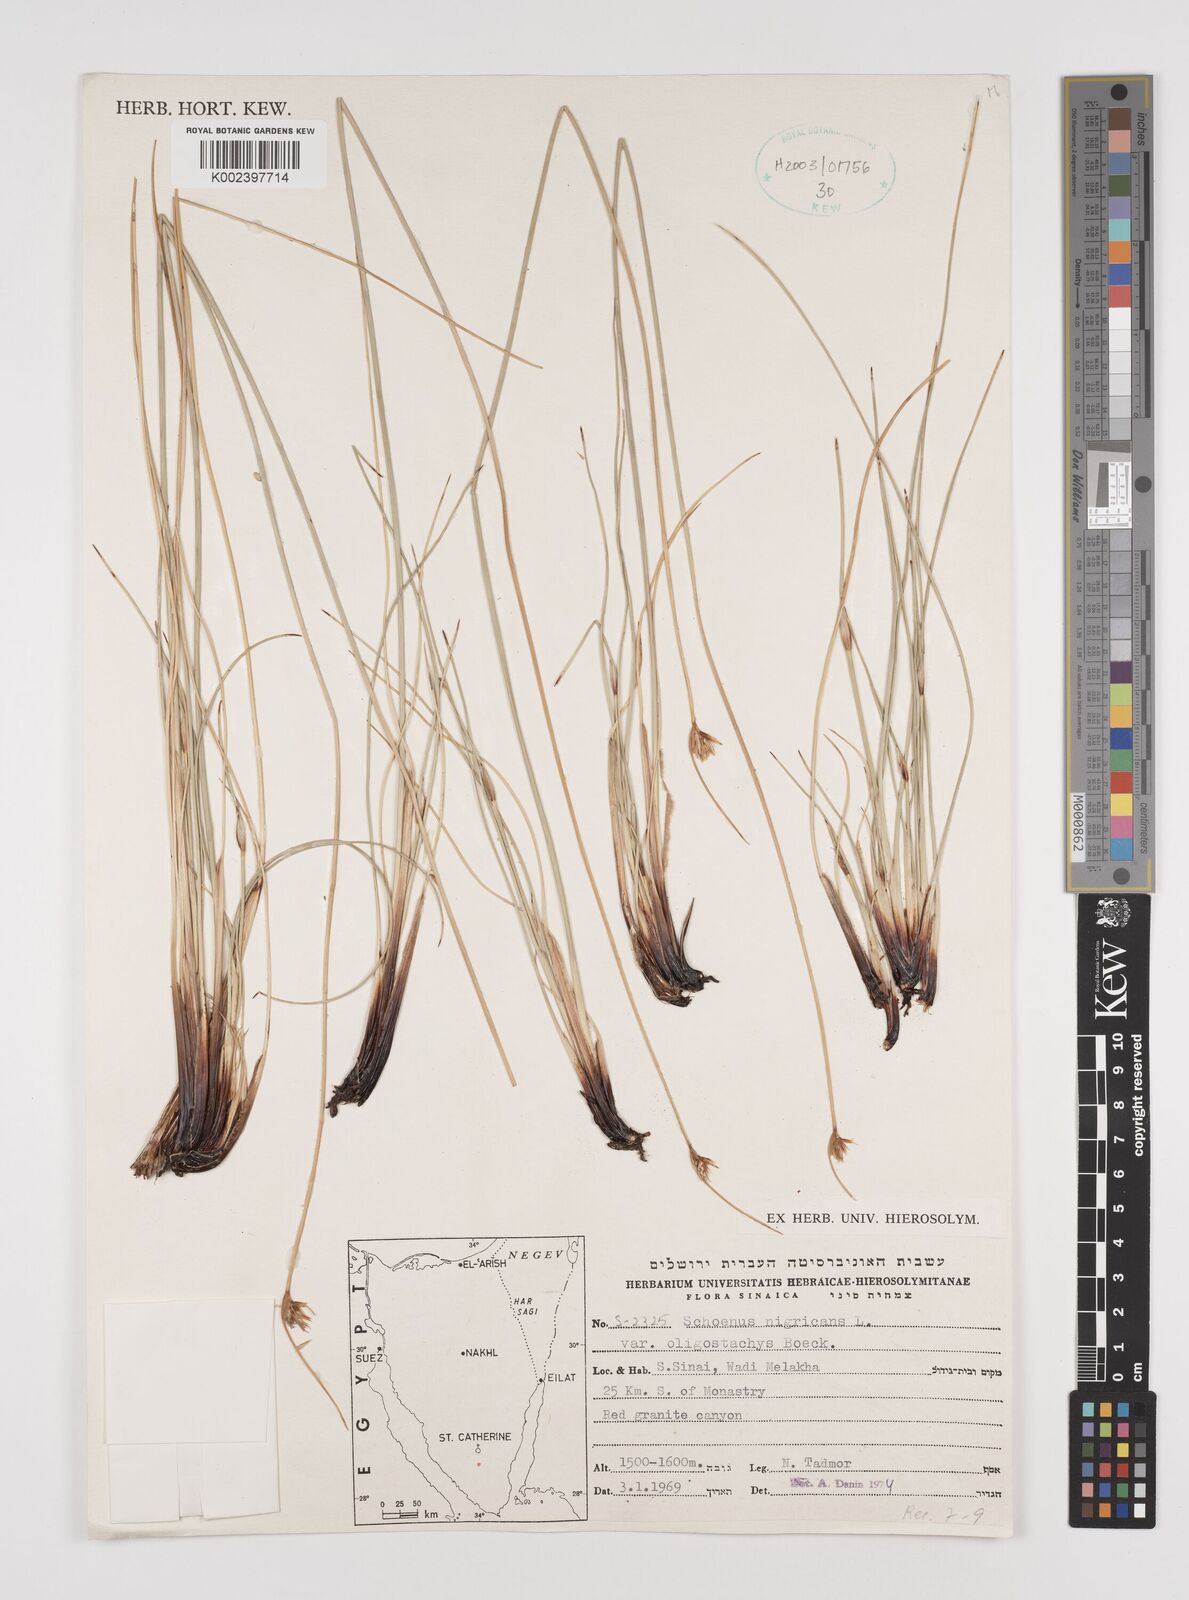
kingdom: Plantae
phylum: Tracheophyta
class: Liliopsida
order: Poales
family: Cyperaceae
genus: Schoenus
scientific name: Schoenus nigricans
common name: Black bog-rush
